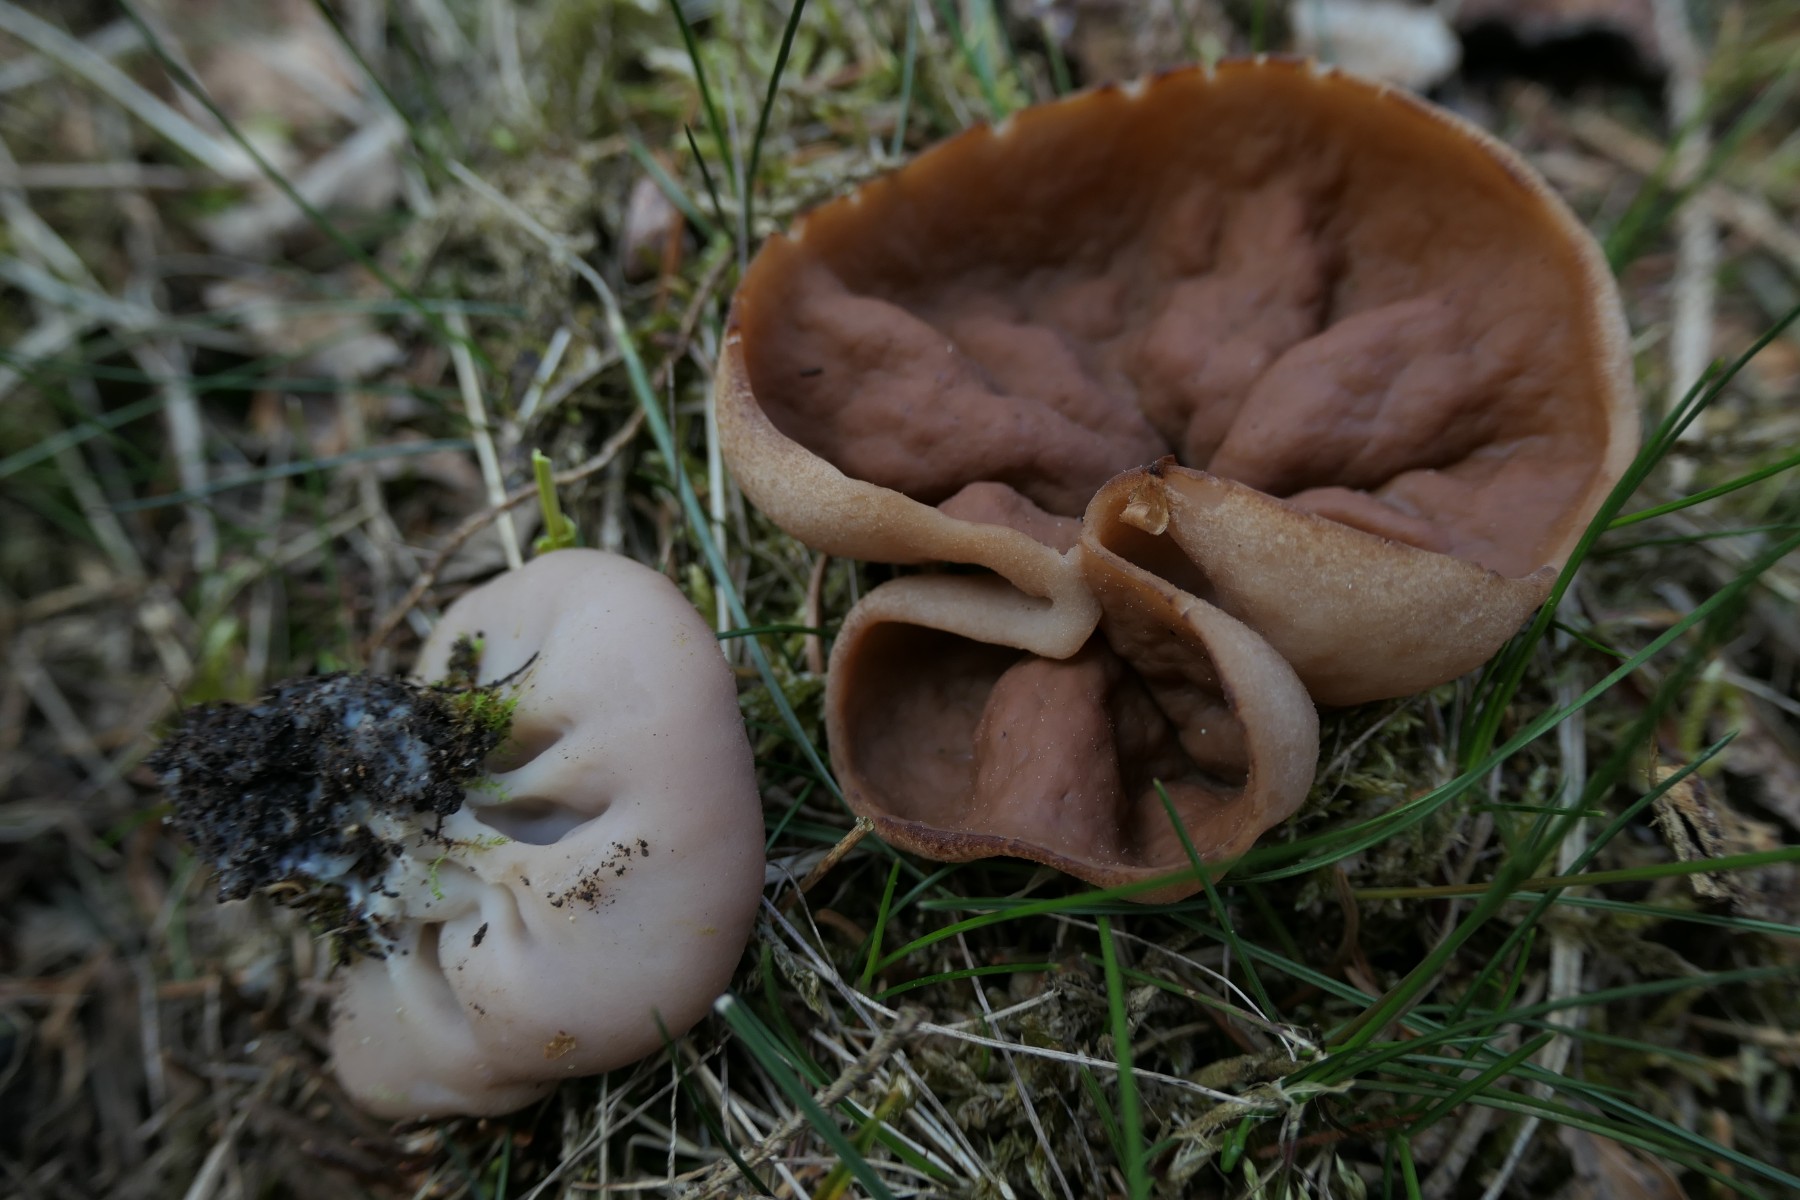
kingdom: Fungi
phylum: Ascomycota
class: Pezizomycetes
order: Pezizales
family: Discinaceae
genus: Discina
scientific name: Discina ancilis
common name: udbredt stenmorkel
